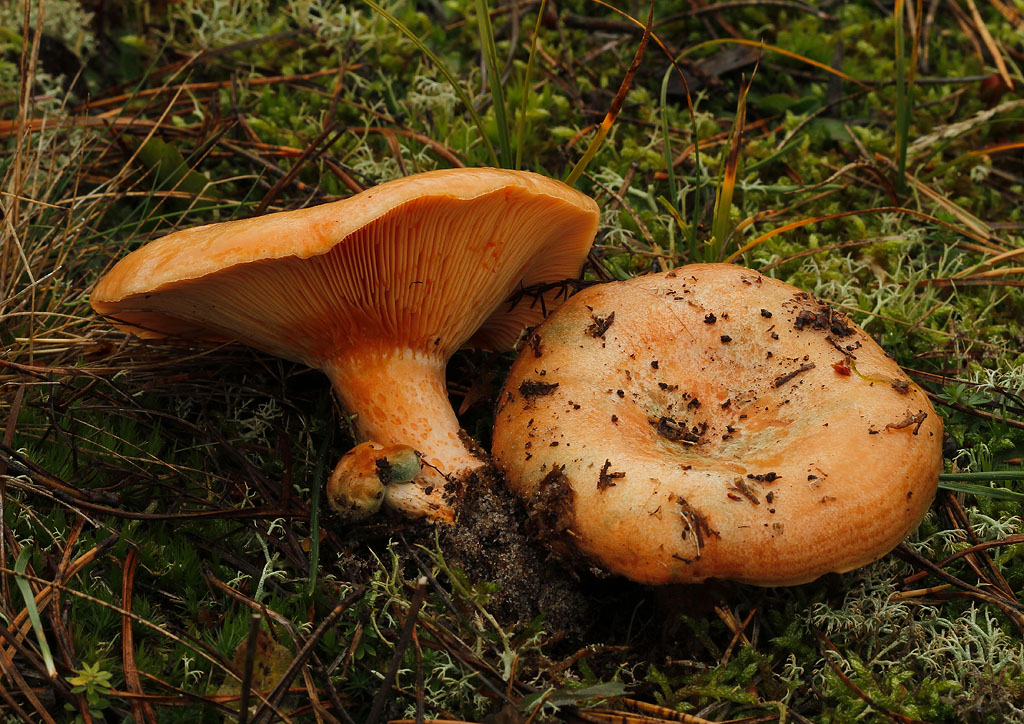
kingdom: Fungi
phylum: Basidiomycota
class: Agaricomycetes
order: Russulales
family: Russulaceae
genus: Lactarius
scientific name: Lactarius deliciosus
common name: velsmagende mælkehat
